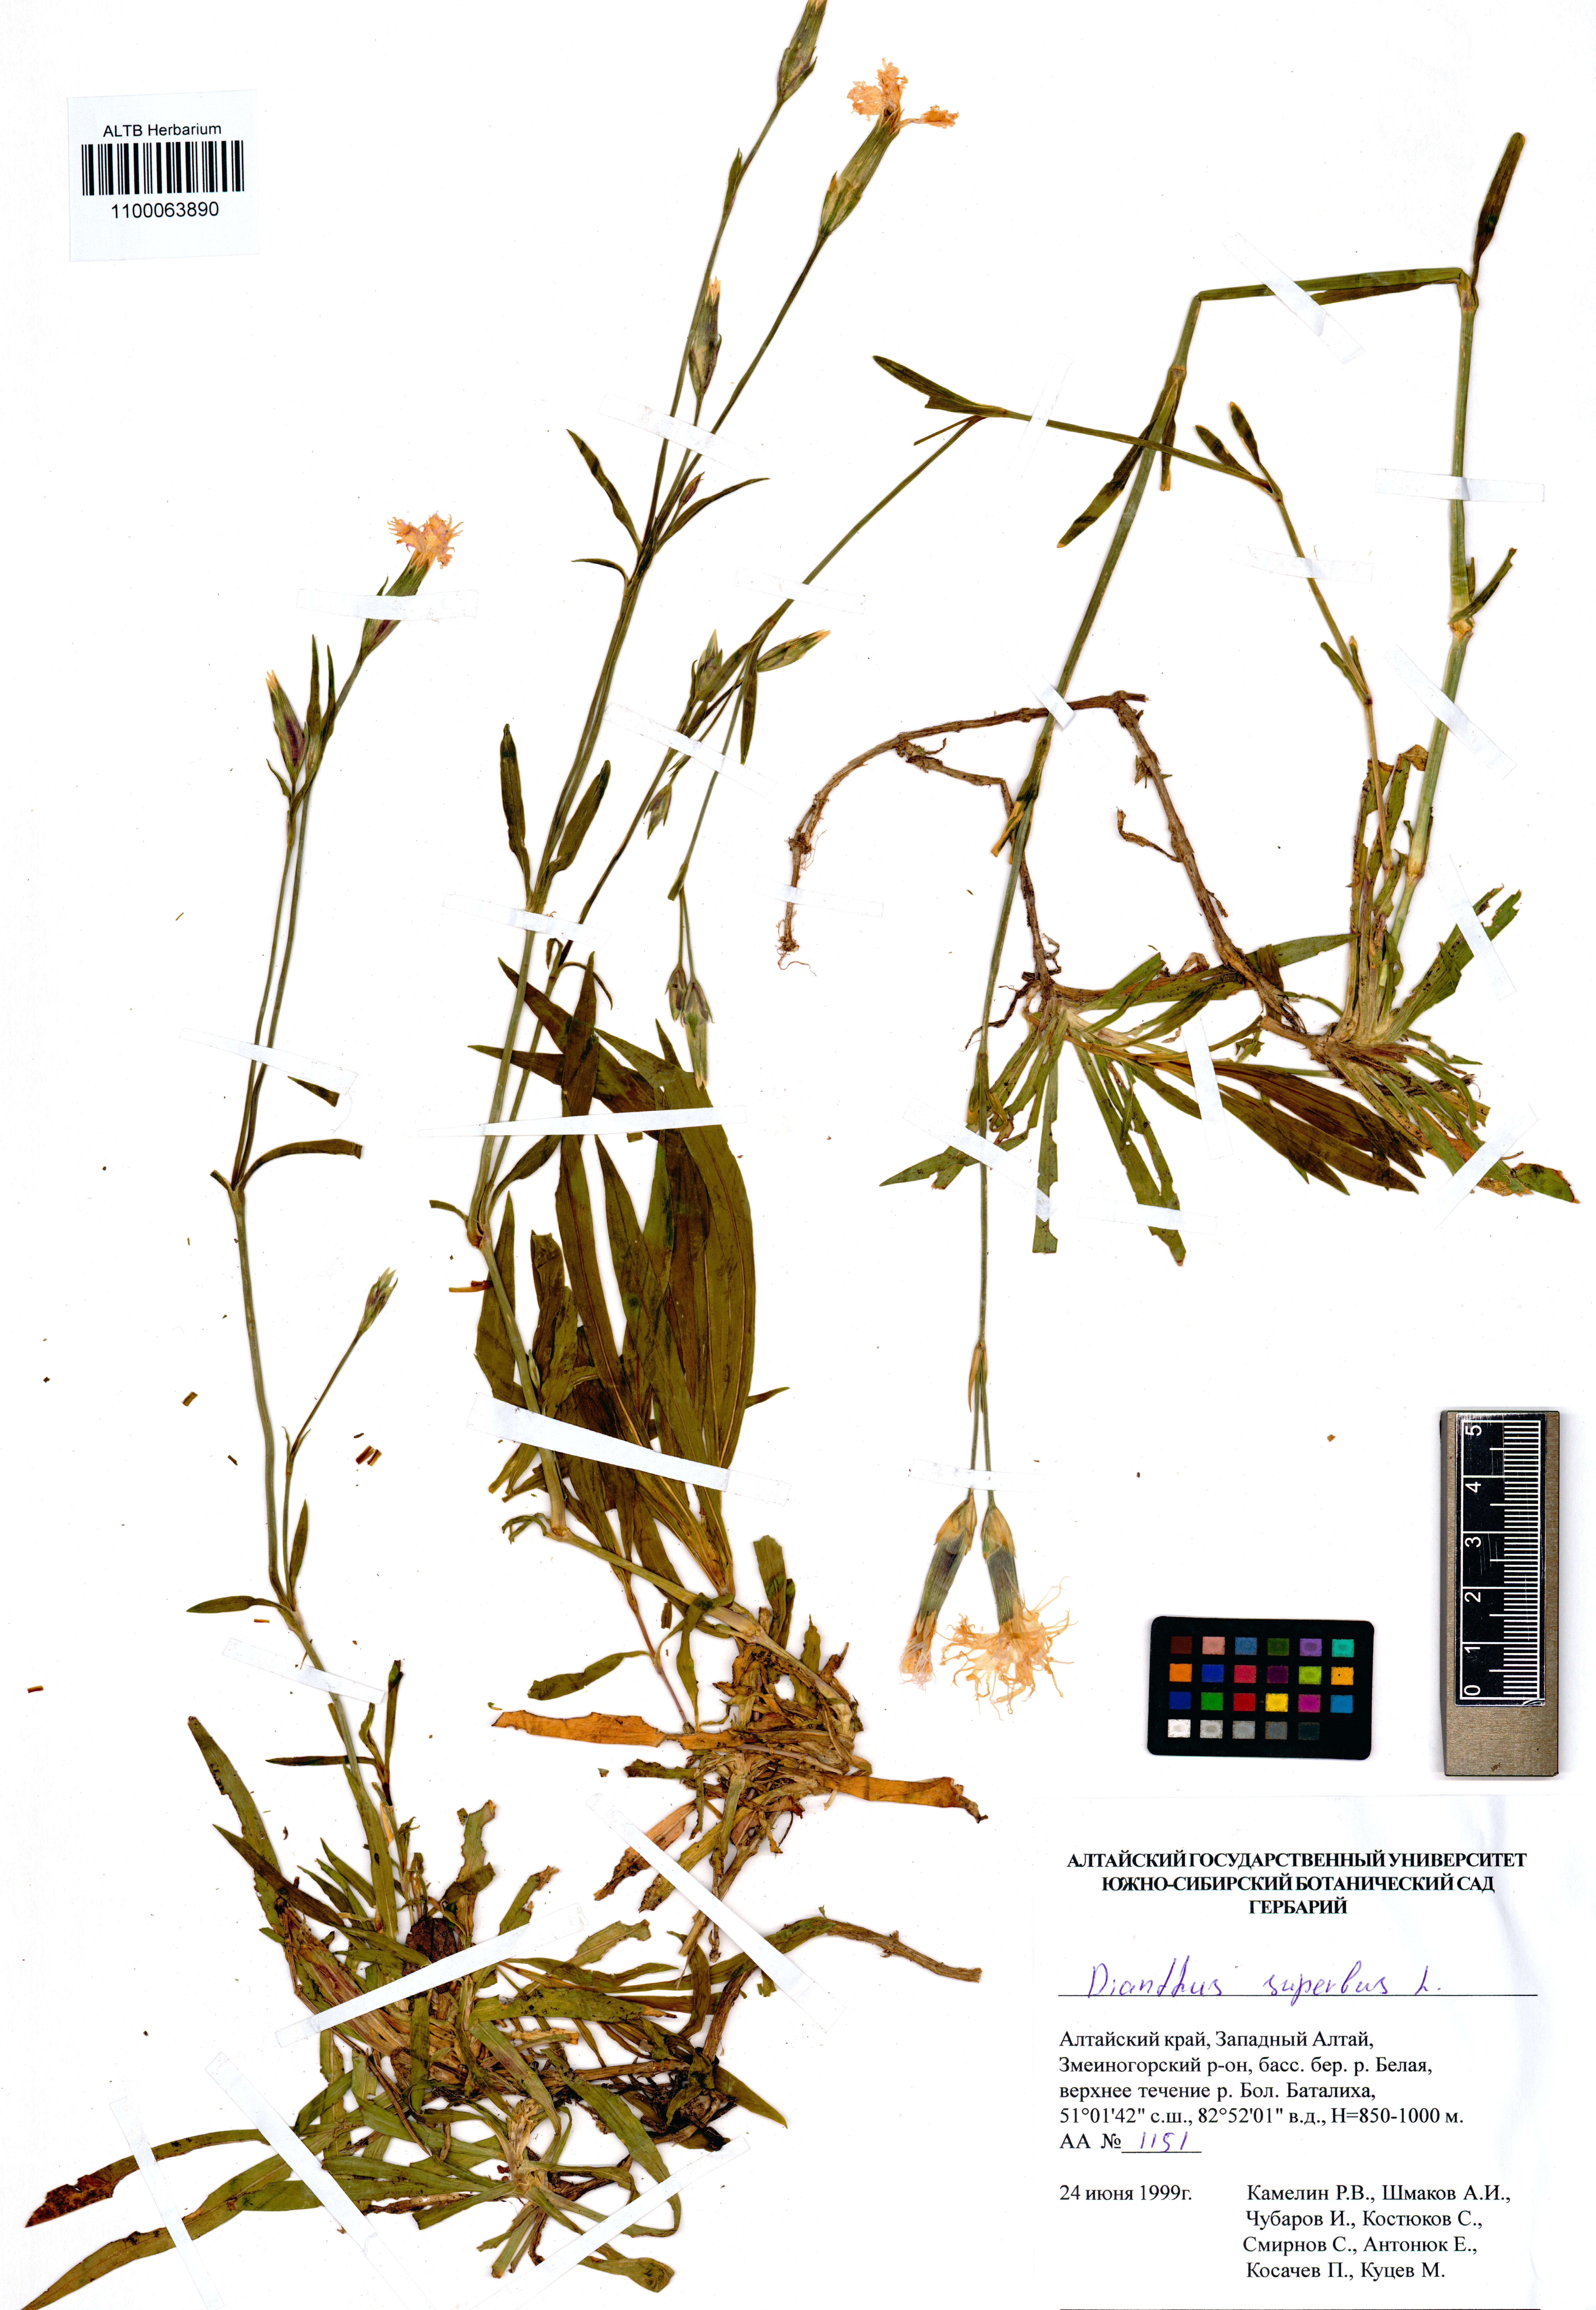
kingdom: Plantae
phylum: Tracheophyta
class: Magnoliopsida
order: Caryophyllales
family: Caryophyllaceae
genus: Dianthus
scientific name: Dianthus superbus
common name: Fringed pink
